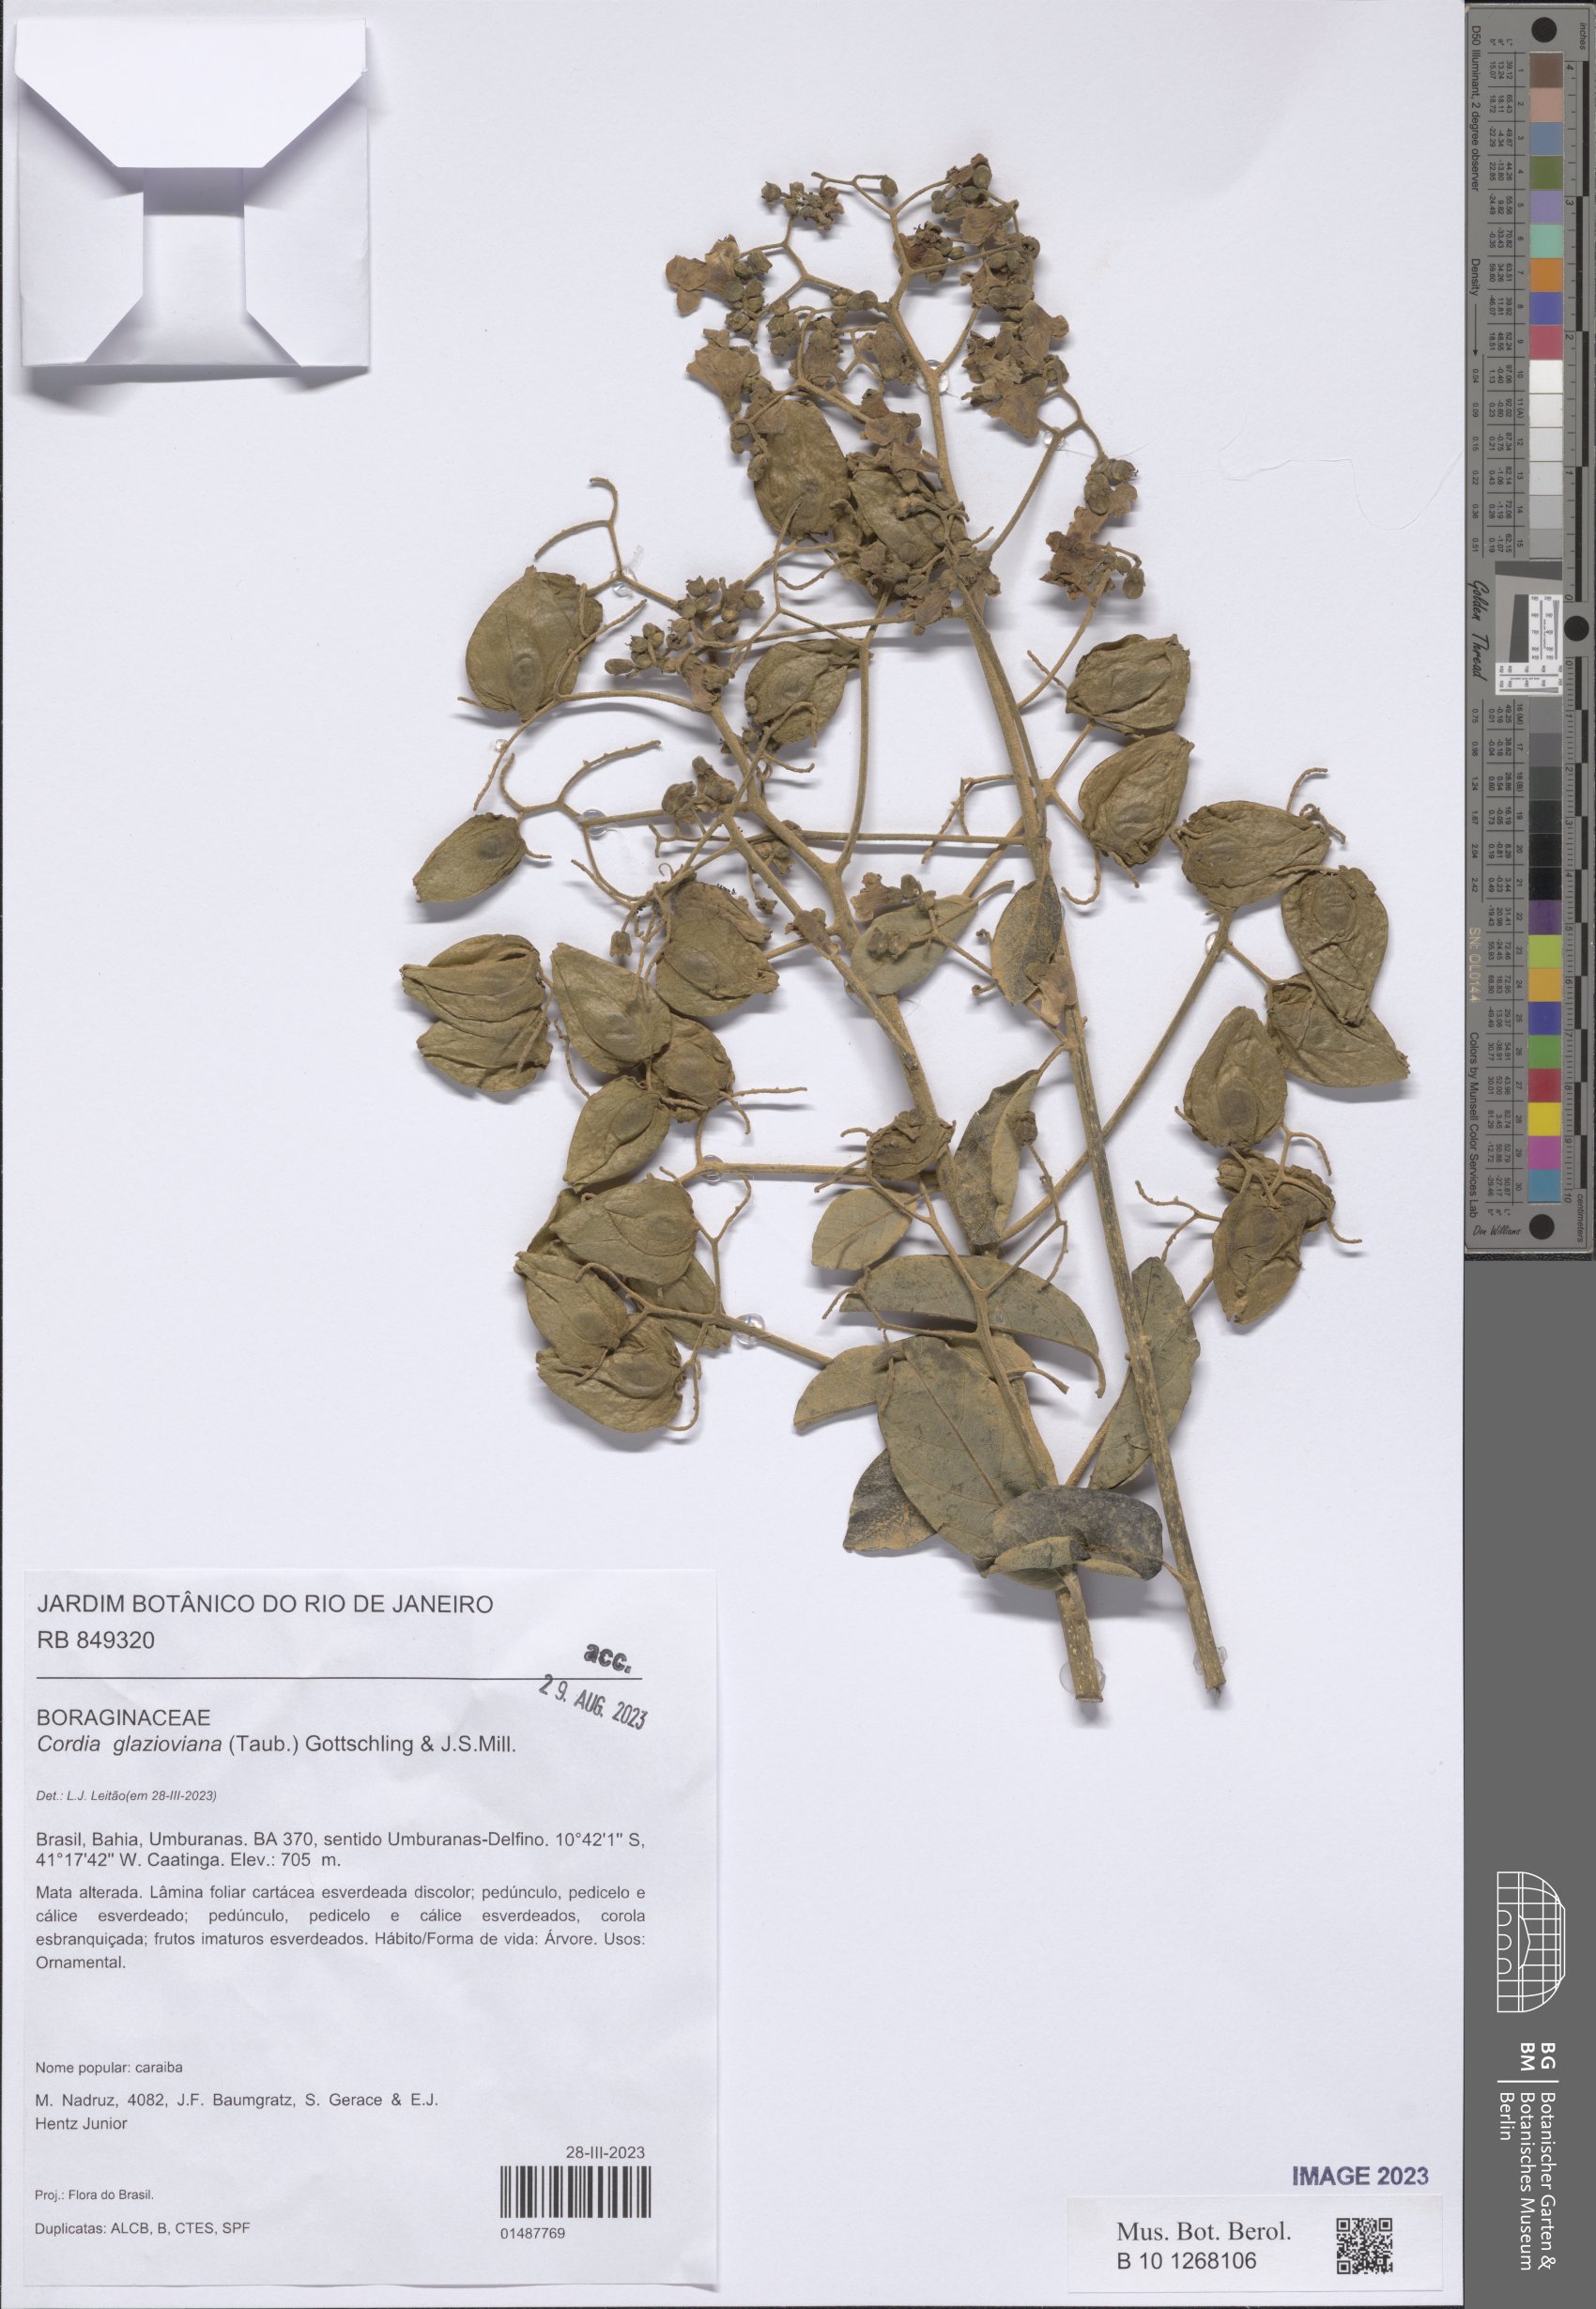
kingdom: Plantae
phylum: Tracheophyta
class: Magnoliopsida
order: Boraginales
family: Cordiaceae
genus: Cordia
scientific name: Cordia glazioviana
